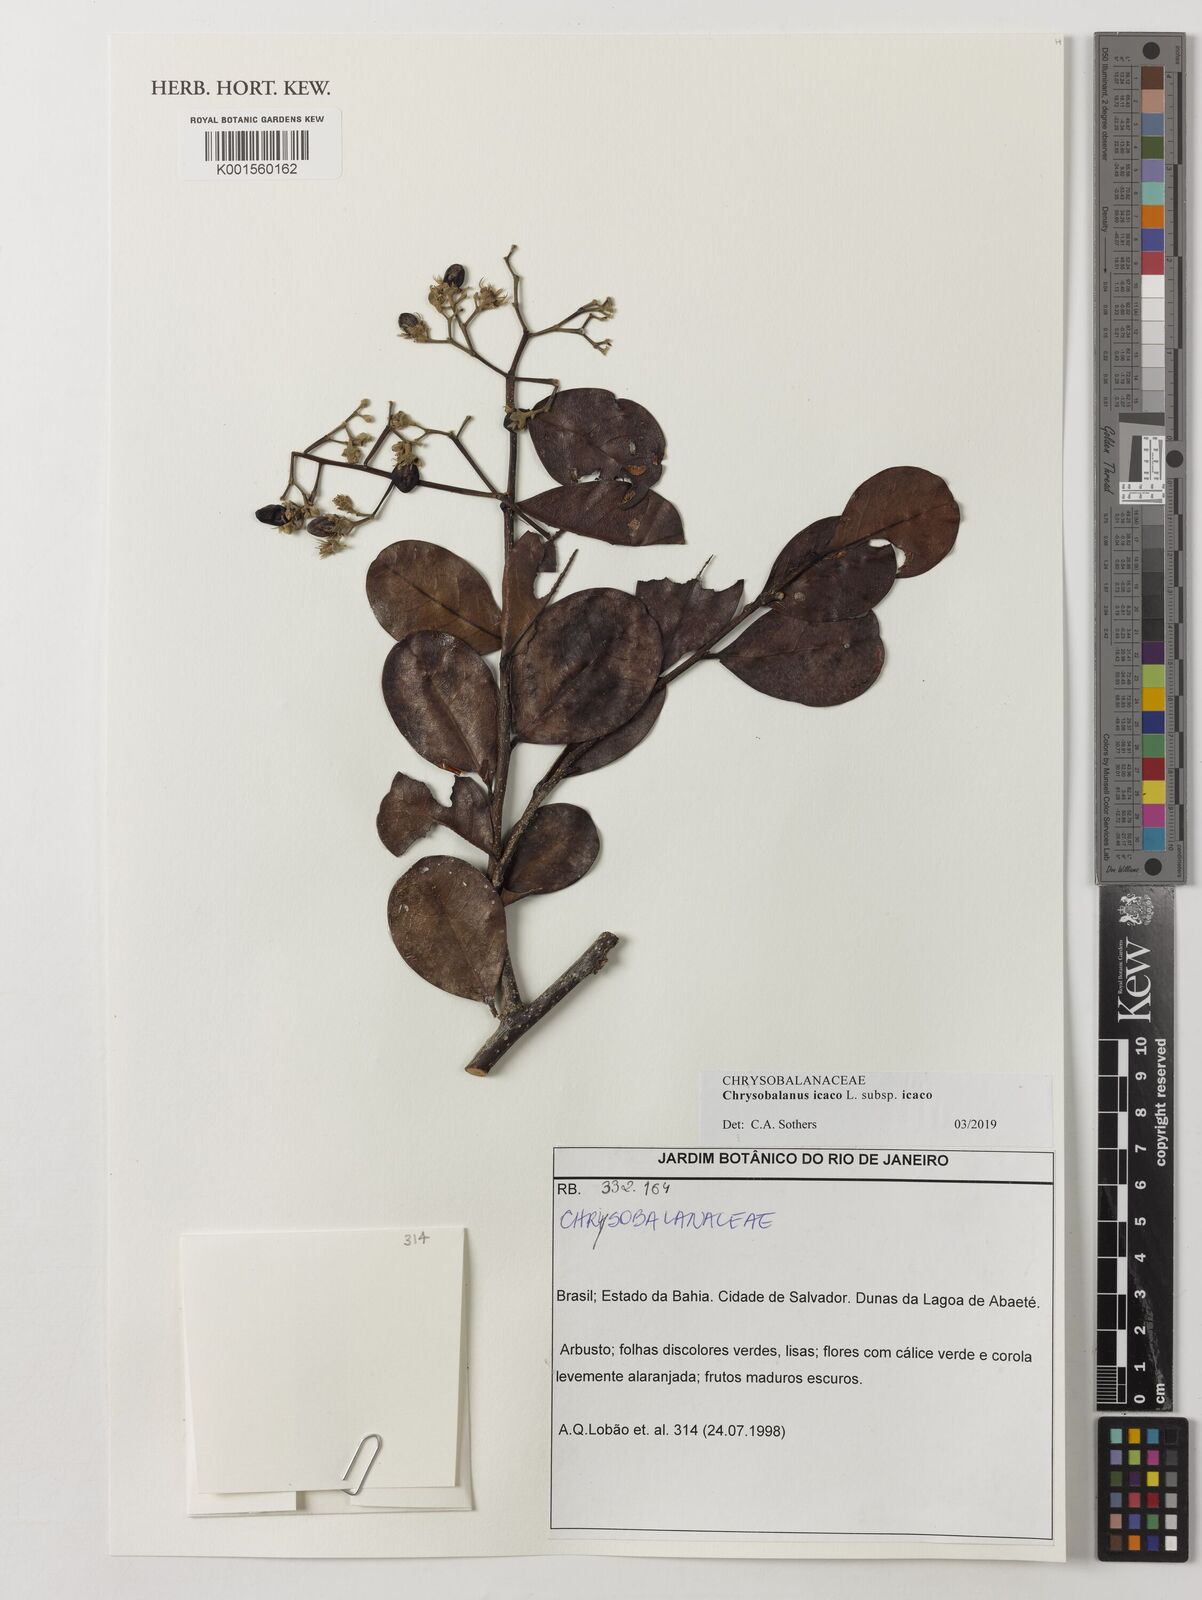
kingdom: Plantae
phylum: Tracheophyta
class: Magnoliopsida
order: Malpighiales
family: Chrysobalanaceae
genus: Chrysobalanus
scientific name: Chrysobalanus icaco
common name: Coco plum
